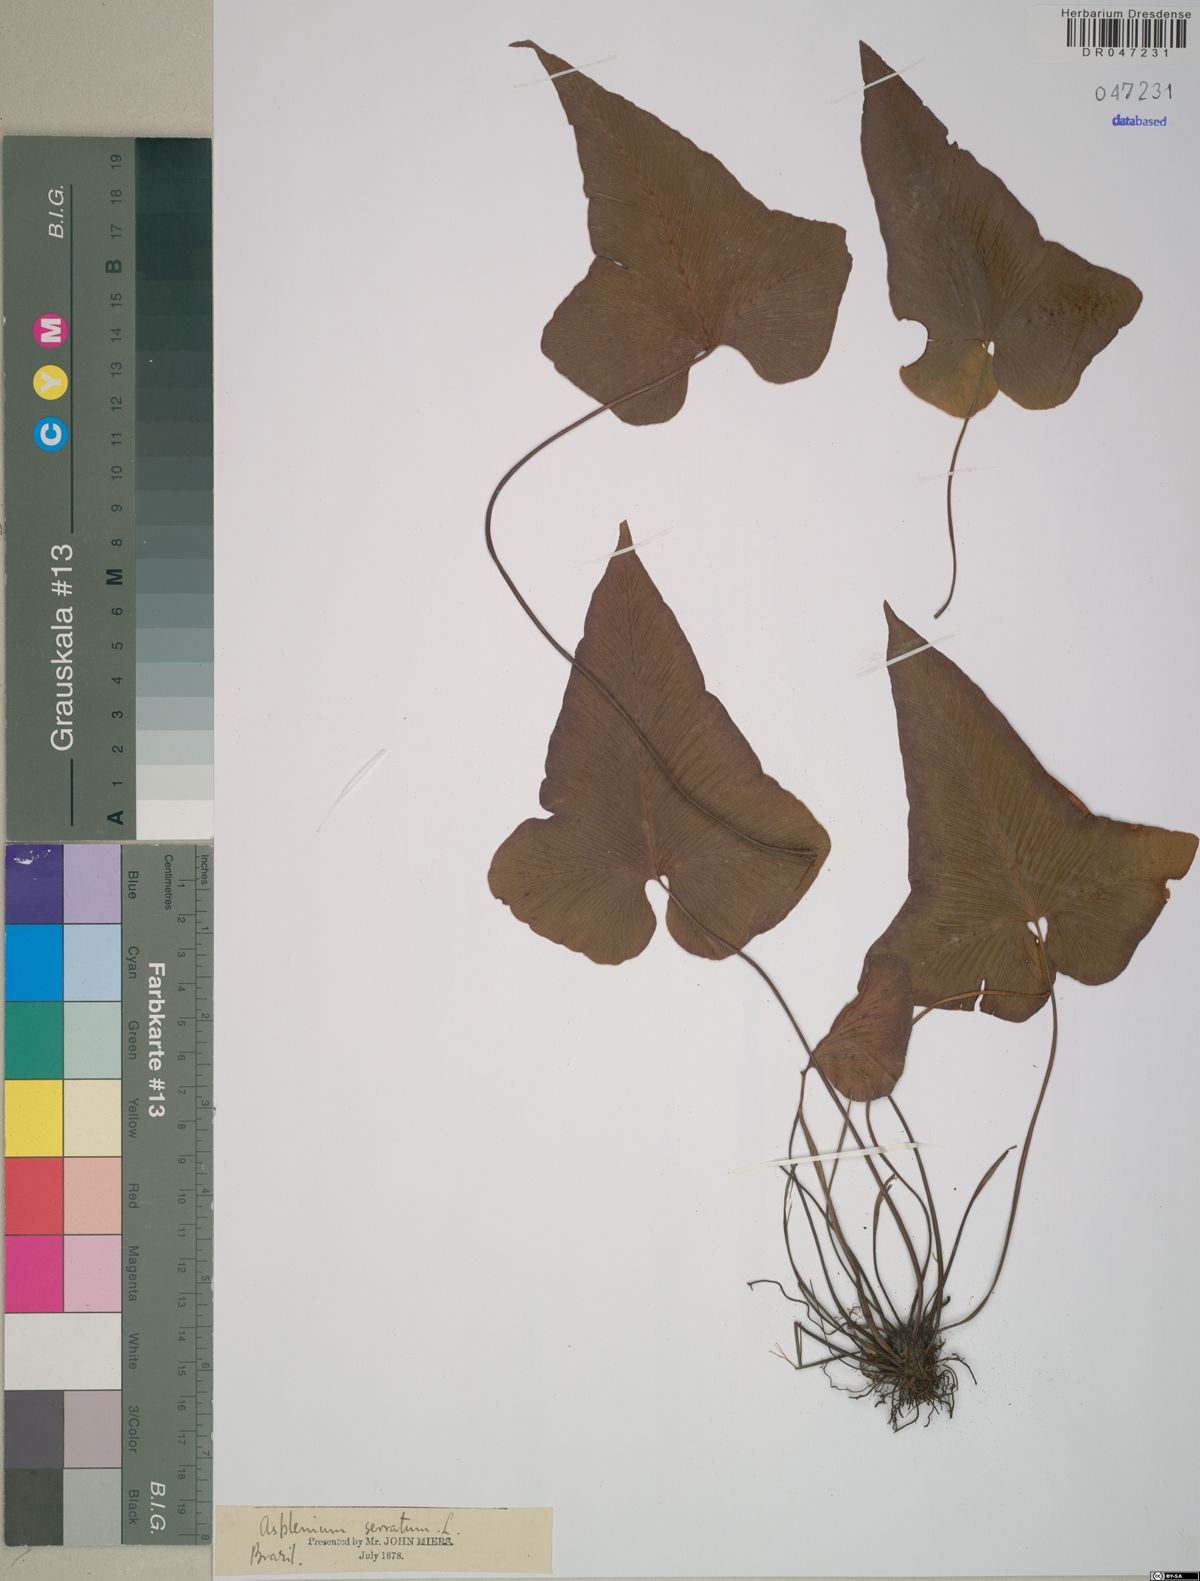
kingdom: Plantae
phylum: Tracheophyta
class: Polypodiopsida
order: Polypodiales
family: Aspleniaceae
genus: Asplenium
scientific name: Asplenium serratum
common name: Wild birdnest fern
